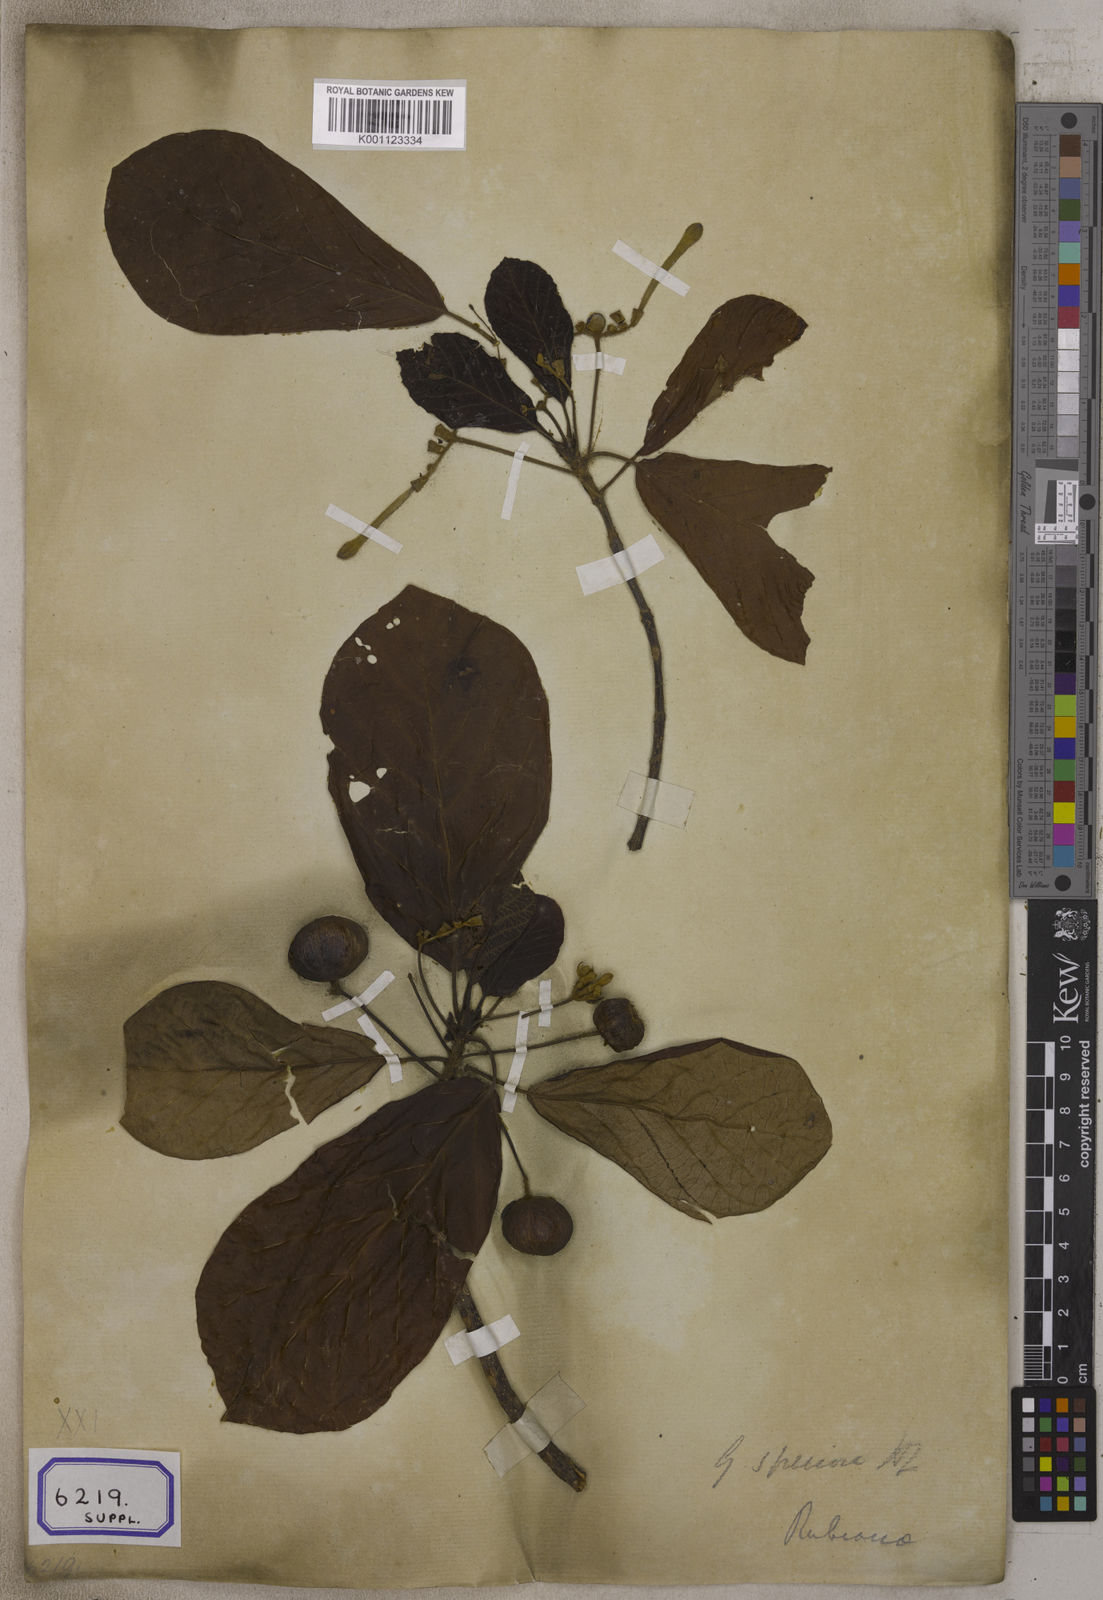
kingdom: Plantae
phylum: Tracheophyta
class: Magnoliopsida
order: Gentianales
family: Rubiaceae
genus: Guettarda
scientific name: Guettarda speciosa
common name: Sea randa
